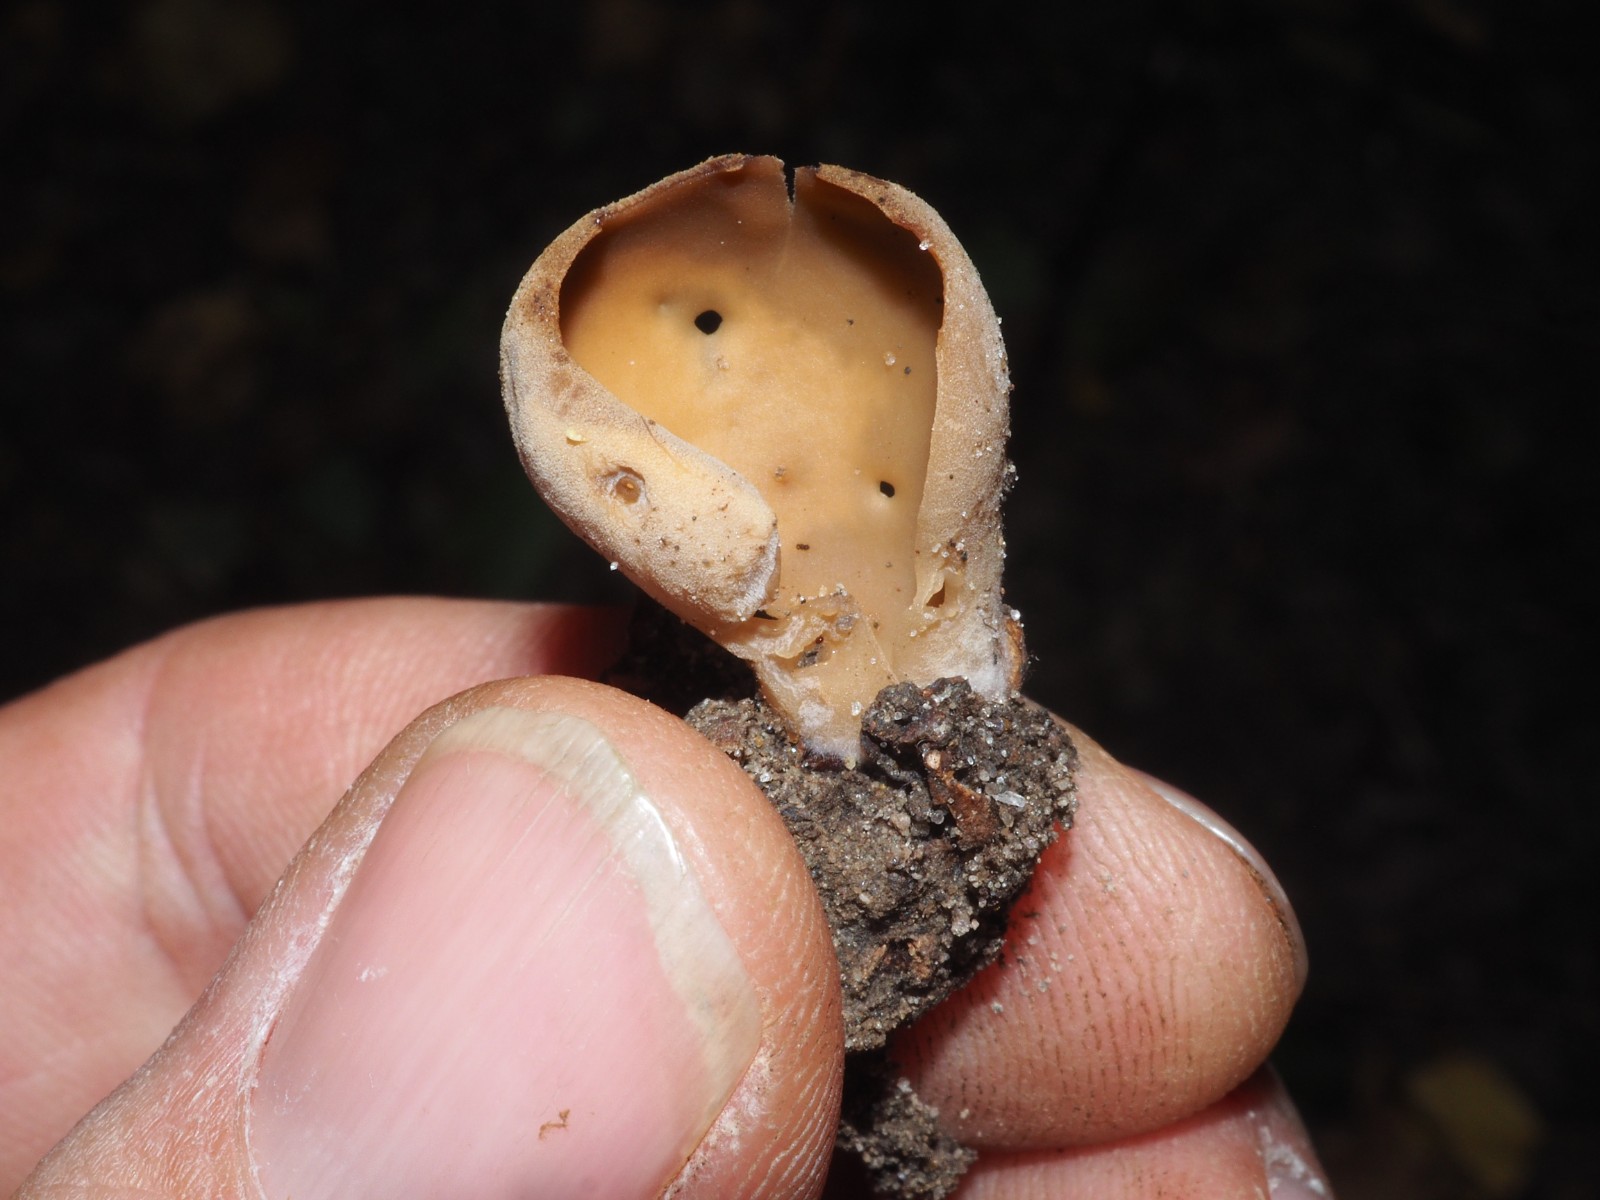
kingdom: Fungi
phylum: Ascomycota
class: Pezizomycetes
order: Pezizales
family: Otideaceae
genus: Otidea
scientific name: Otidea alutacea
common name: læder-ørebæger
